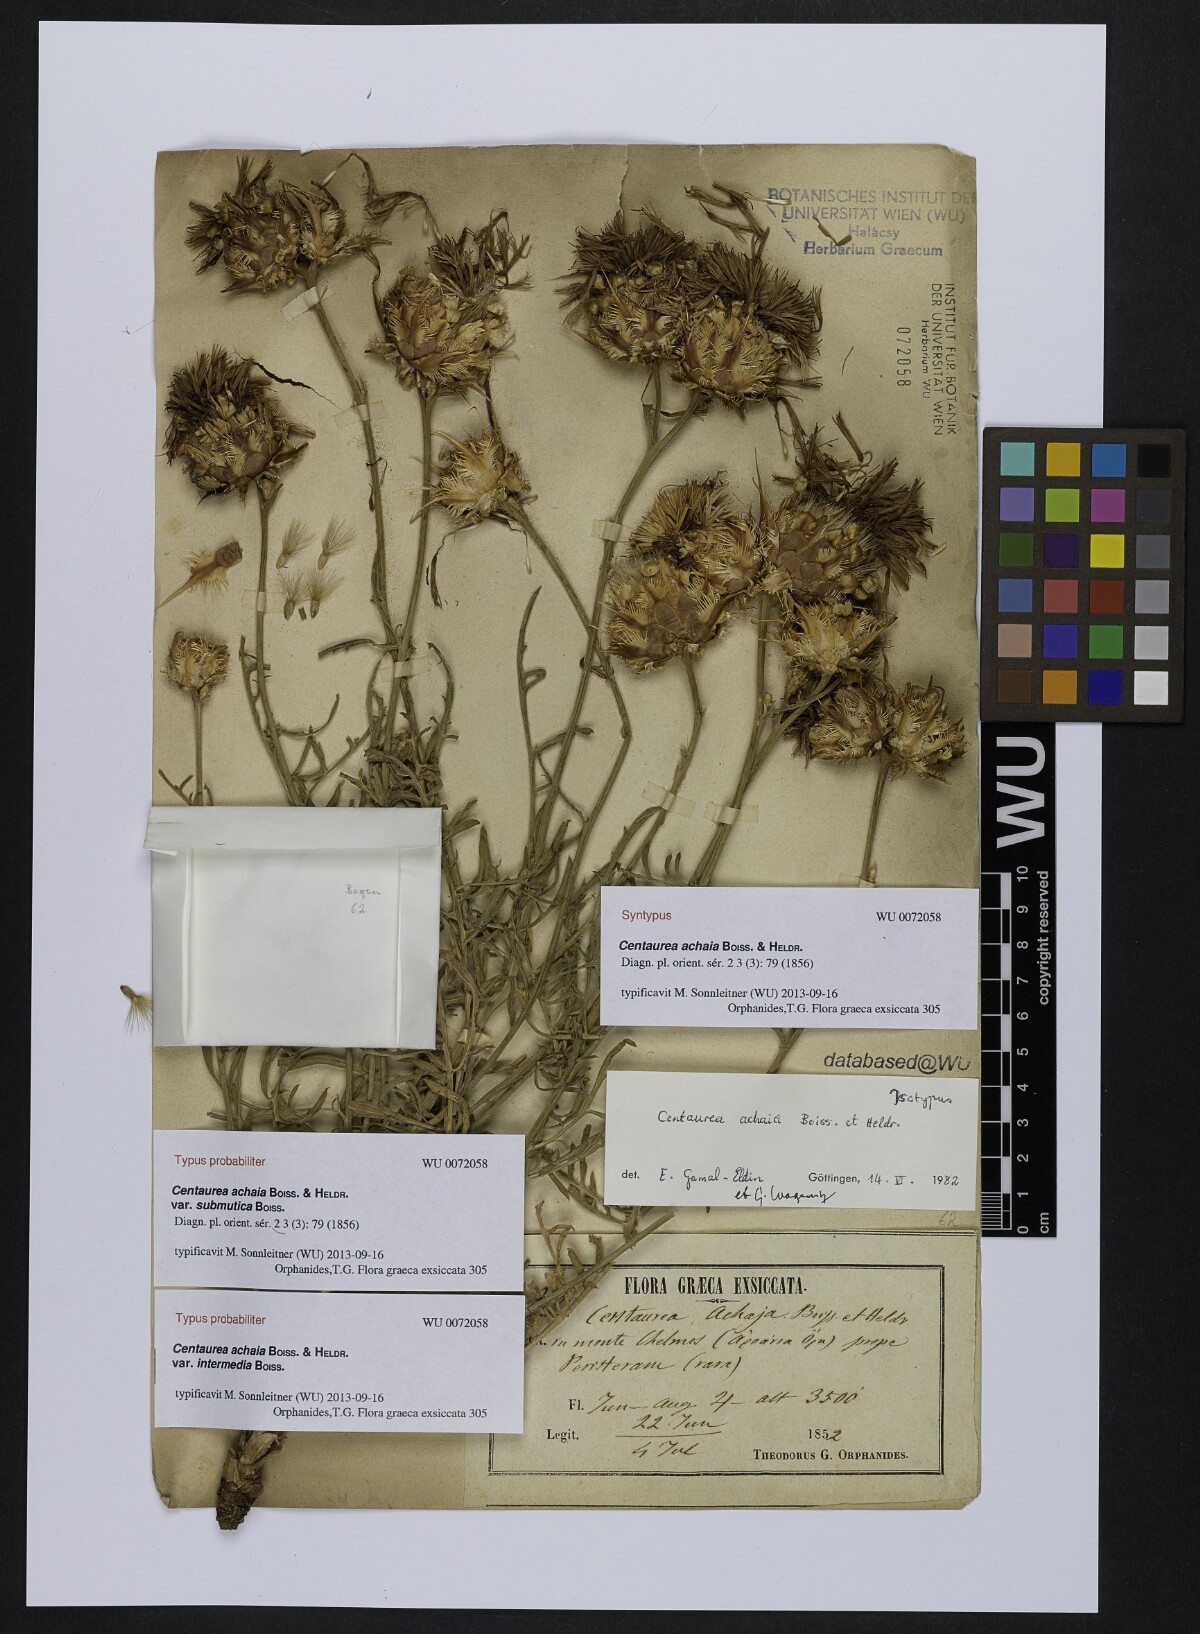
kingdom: Plantae
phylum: Tracheophyta
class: Magnoliopsida
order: Asterales
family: Asteraceae
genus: Centaurea
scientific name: Centaurea achaia
